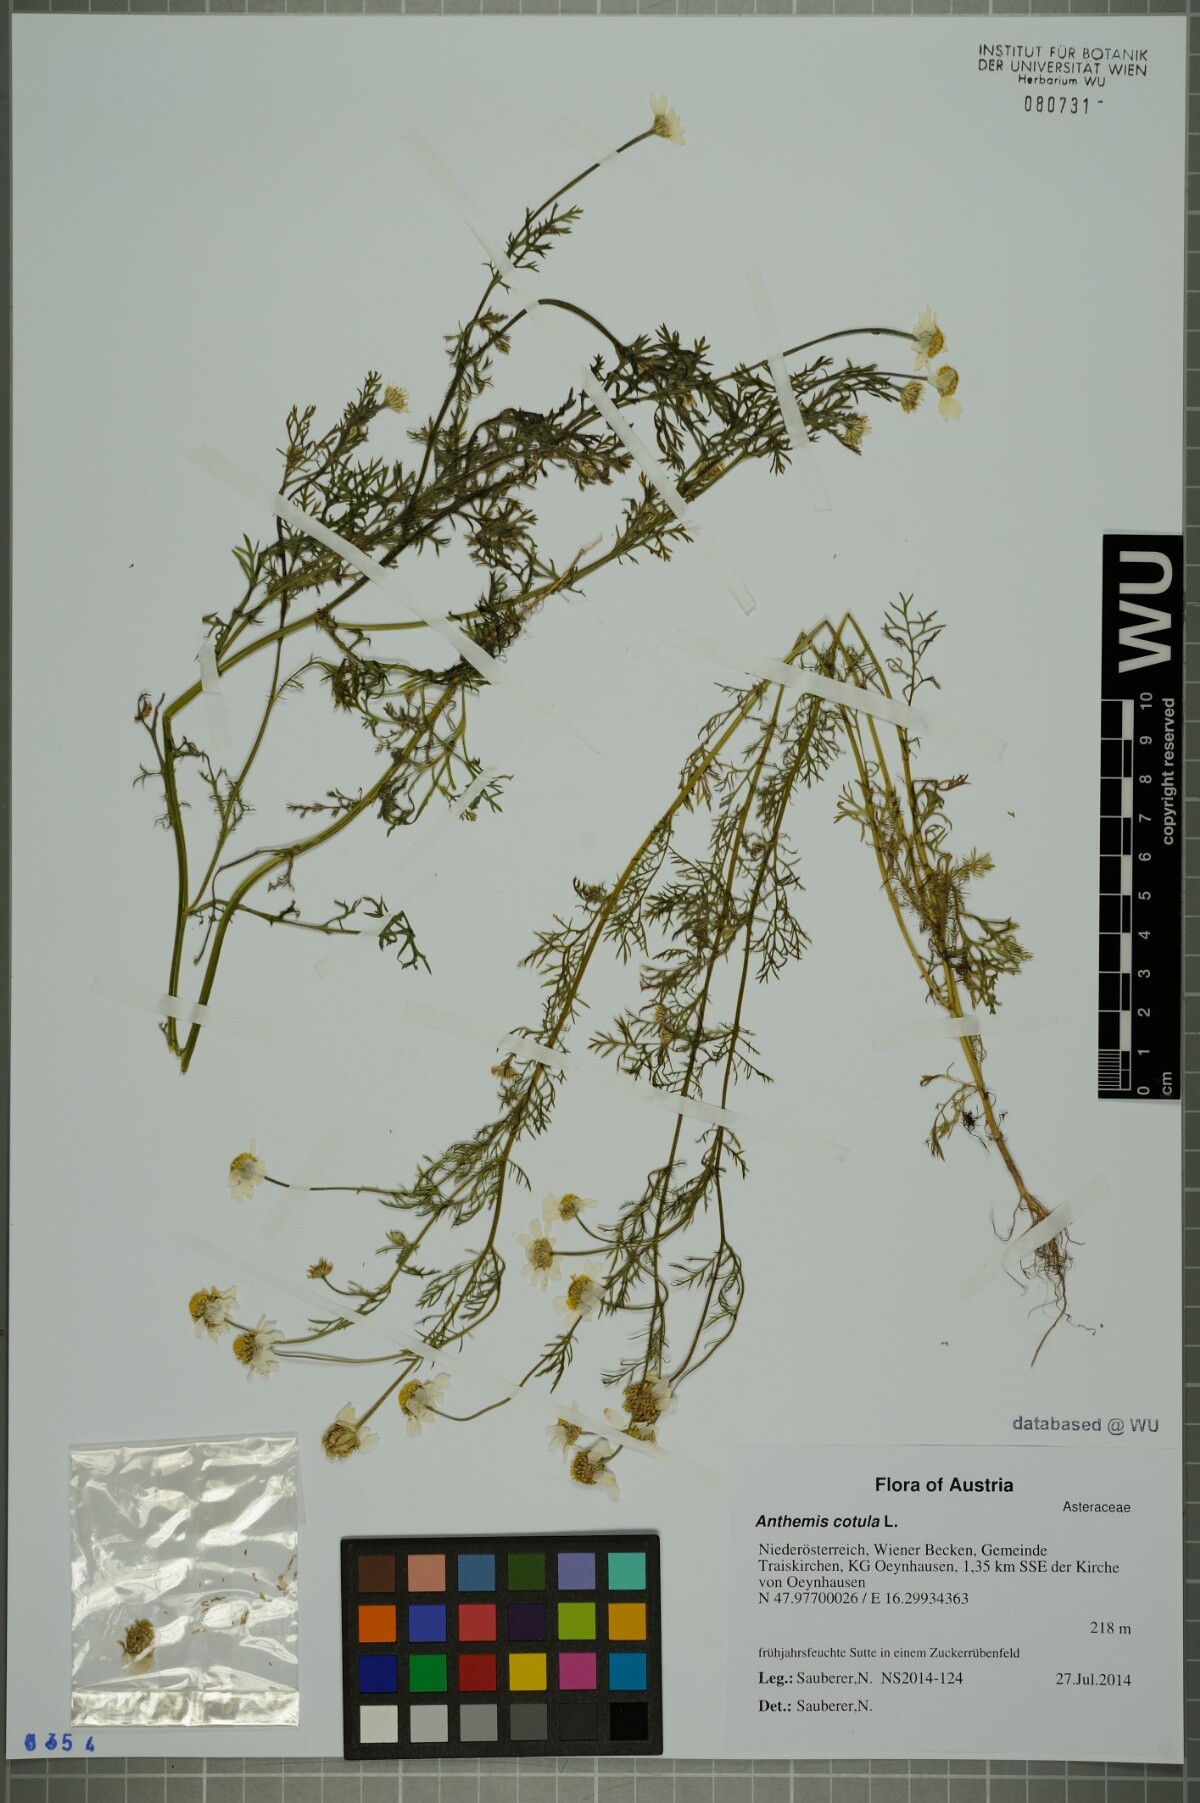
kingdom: Plantae
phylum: Tracheophyta
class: Magnoliopsida
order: Asterales
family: Asteraceae
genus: Anthemis
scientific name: Anthemis cotula
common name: Stinking chamomile
